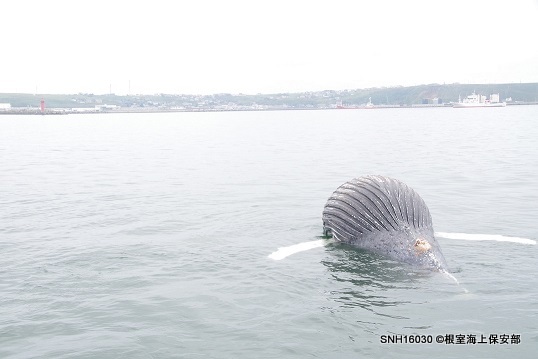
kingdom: Animalia
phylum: Chordata
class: Mammalia
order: Cetacea
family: Balaenopteridae
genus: Megaptera
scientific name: Megaptera novaeangliae
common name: Humpback whale
